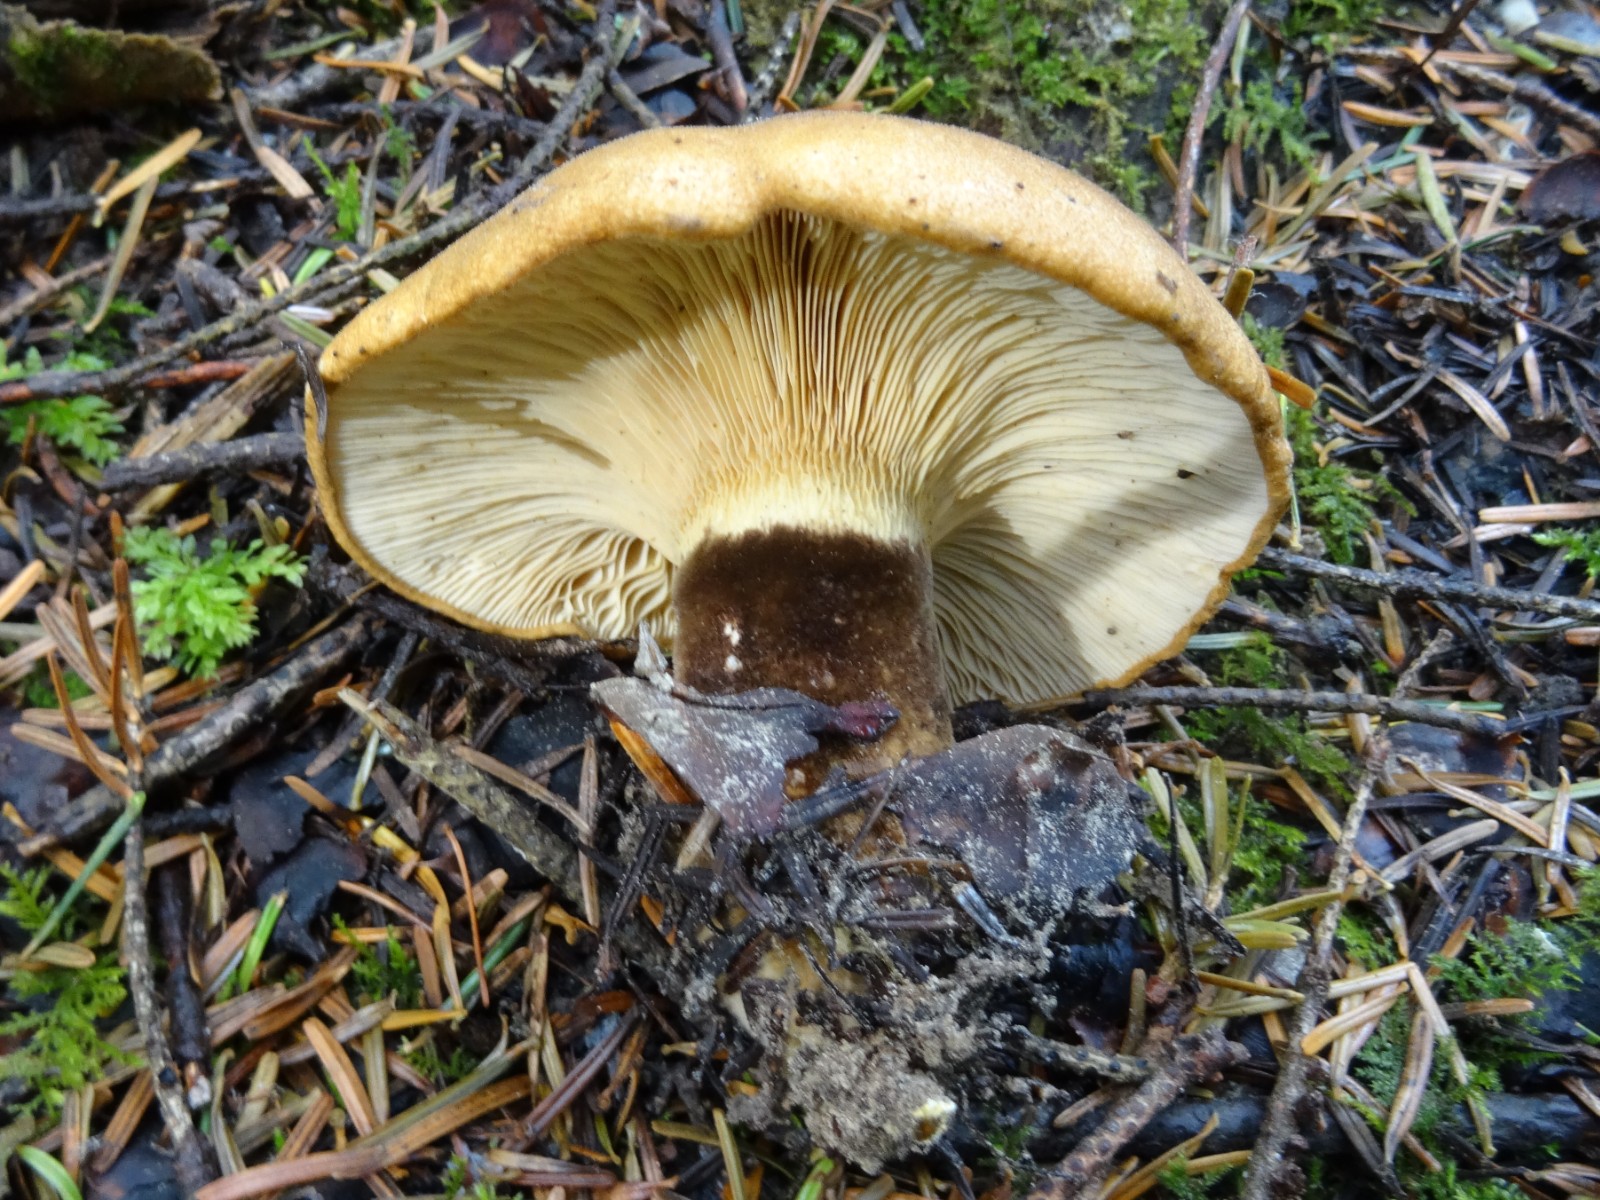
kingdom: Fungi
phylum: Basidiomycota
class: Agaricomycetes
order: Boletales
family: Tapinellaceae
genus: Tapinella
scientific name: Tapinella atrotomentosa
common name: sortfiltet viftesvamp
